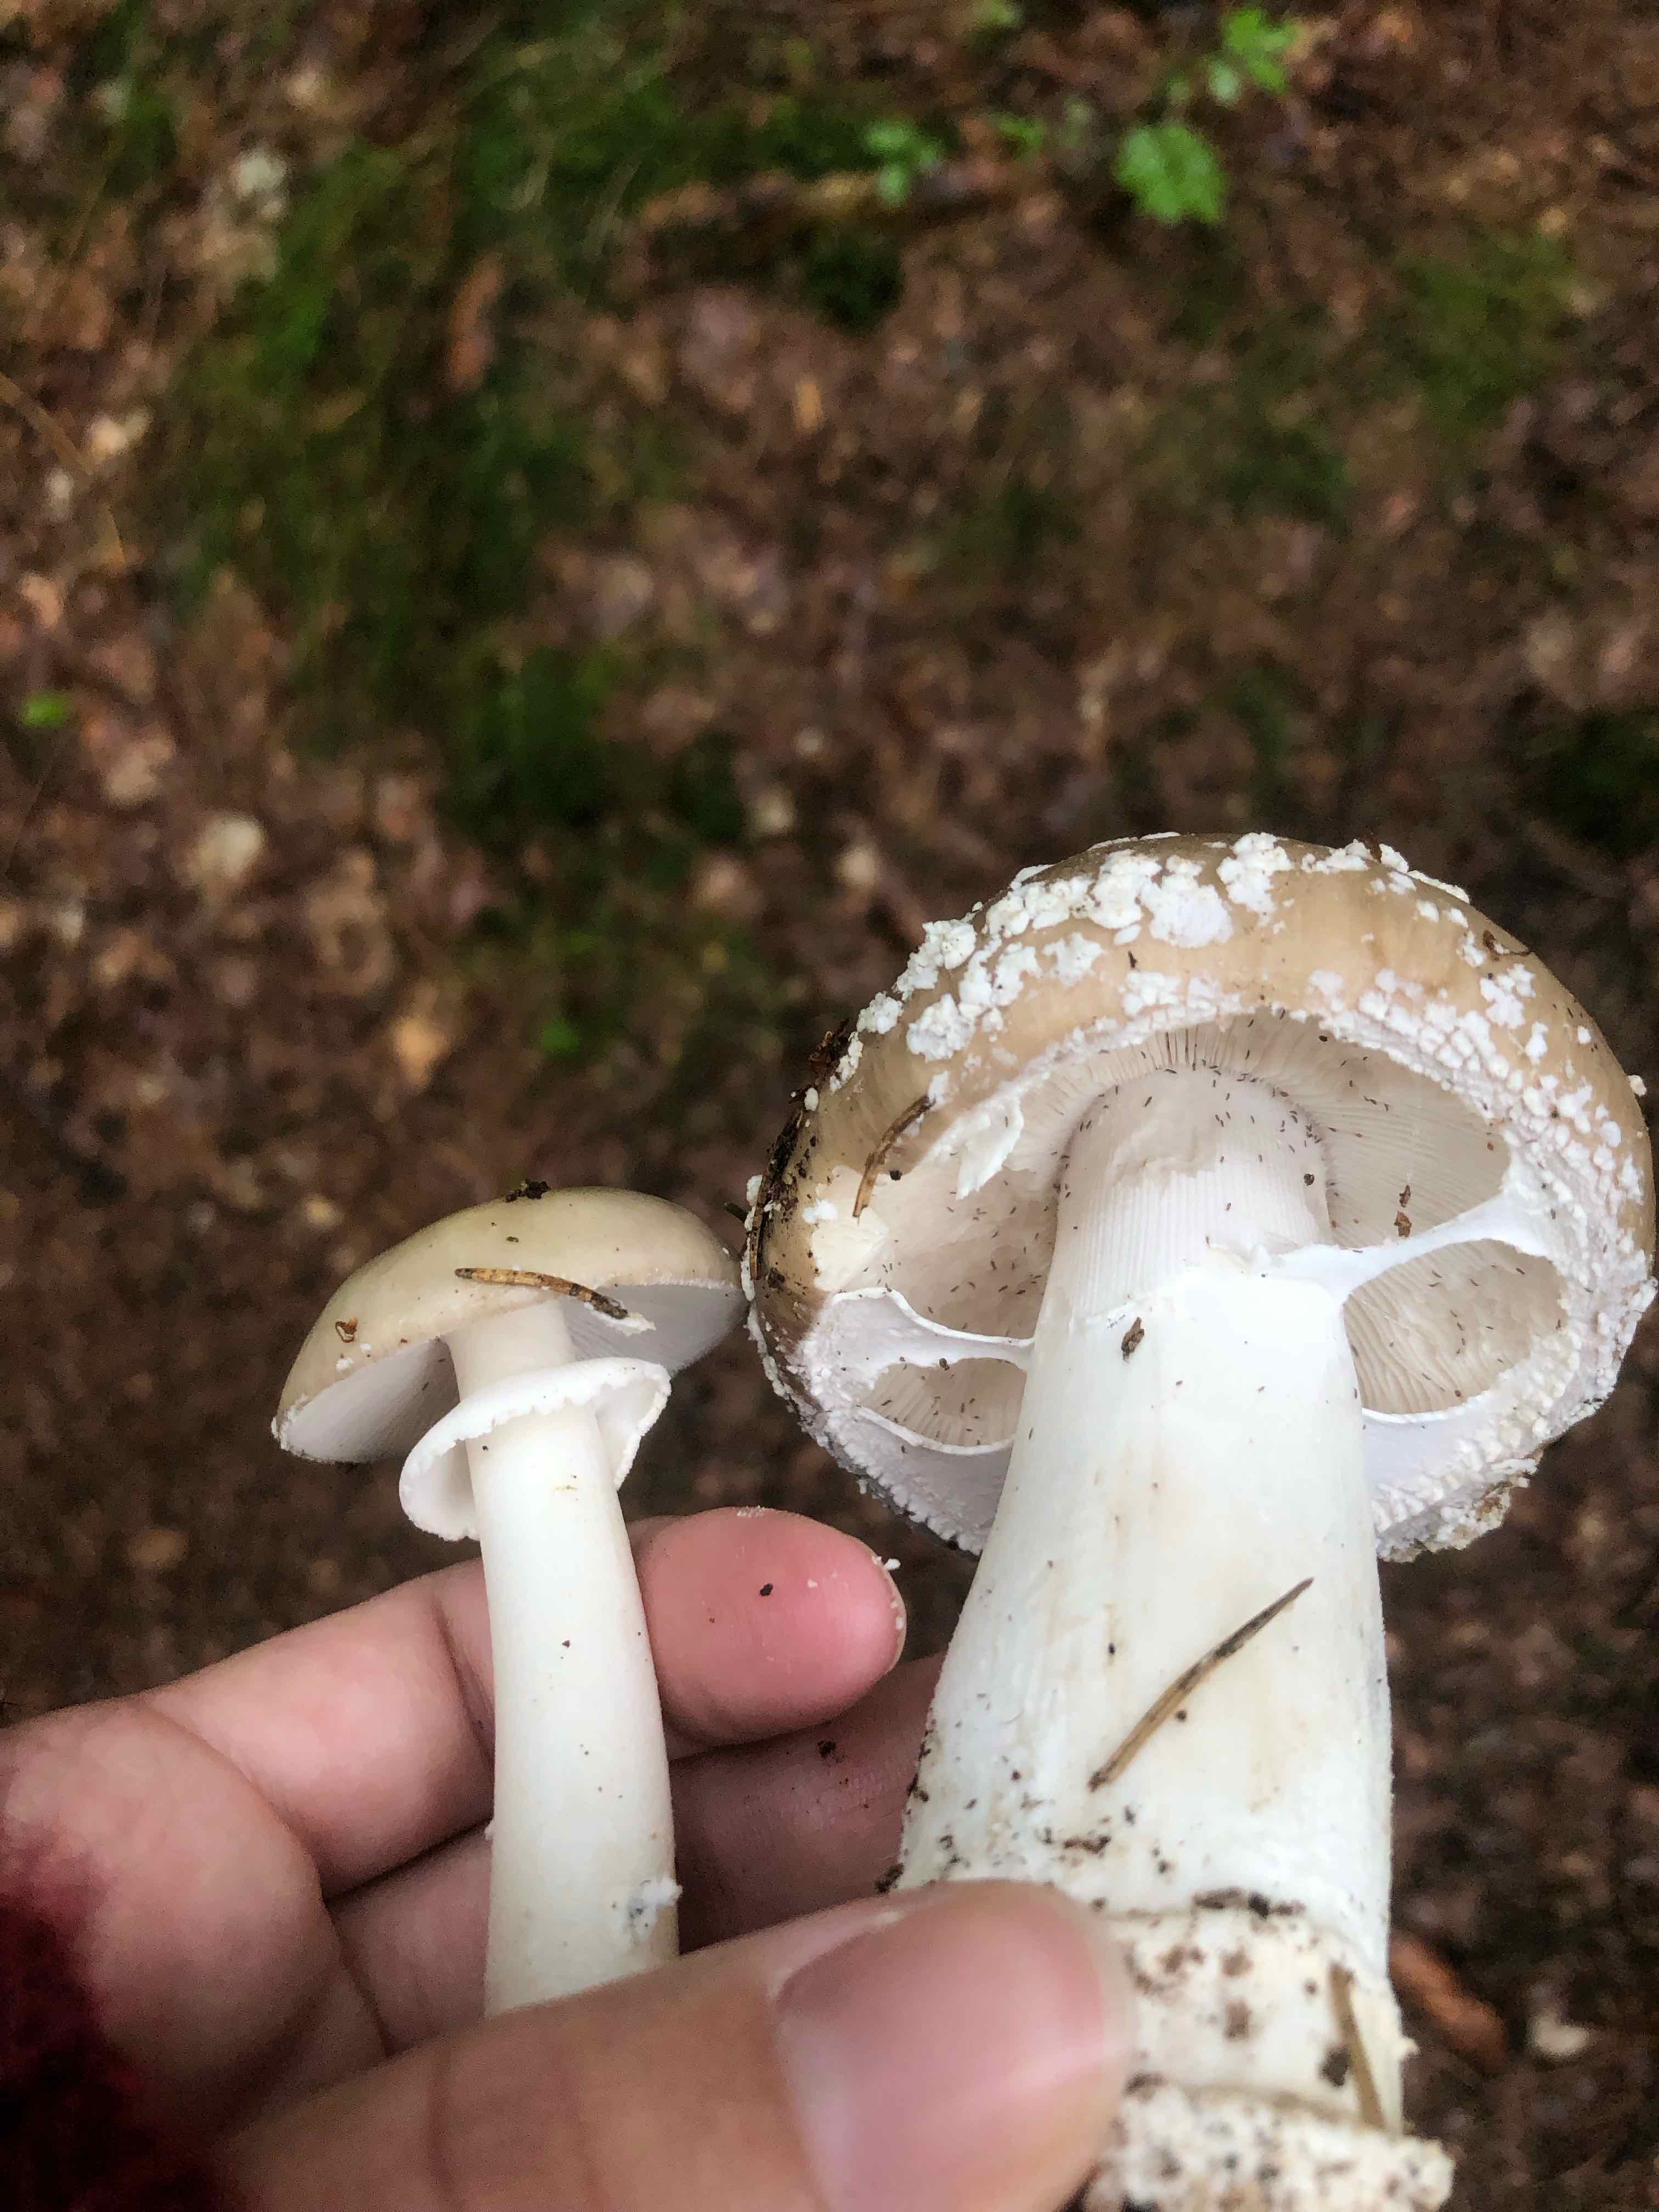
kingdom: Fungi
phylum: Basidiomycota
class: Agaricomycetes
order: Agaricales
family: Amanitaceae
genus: Amanita
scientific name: Amanita
